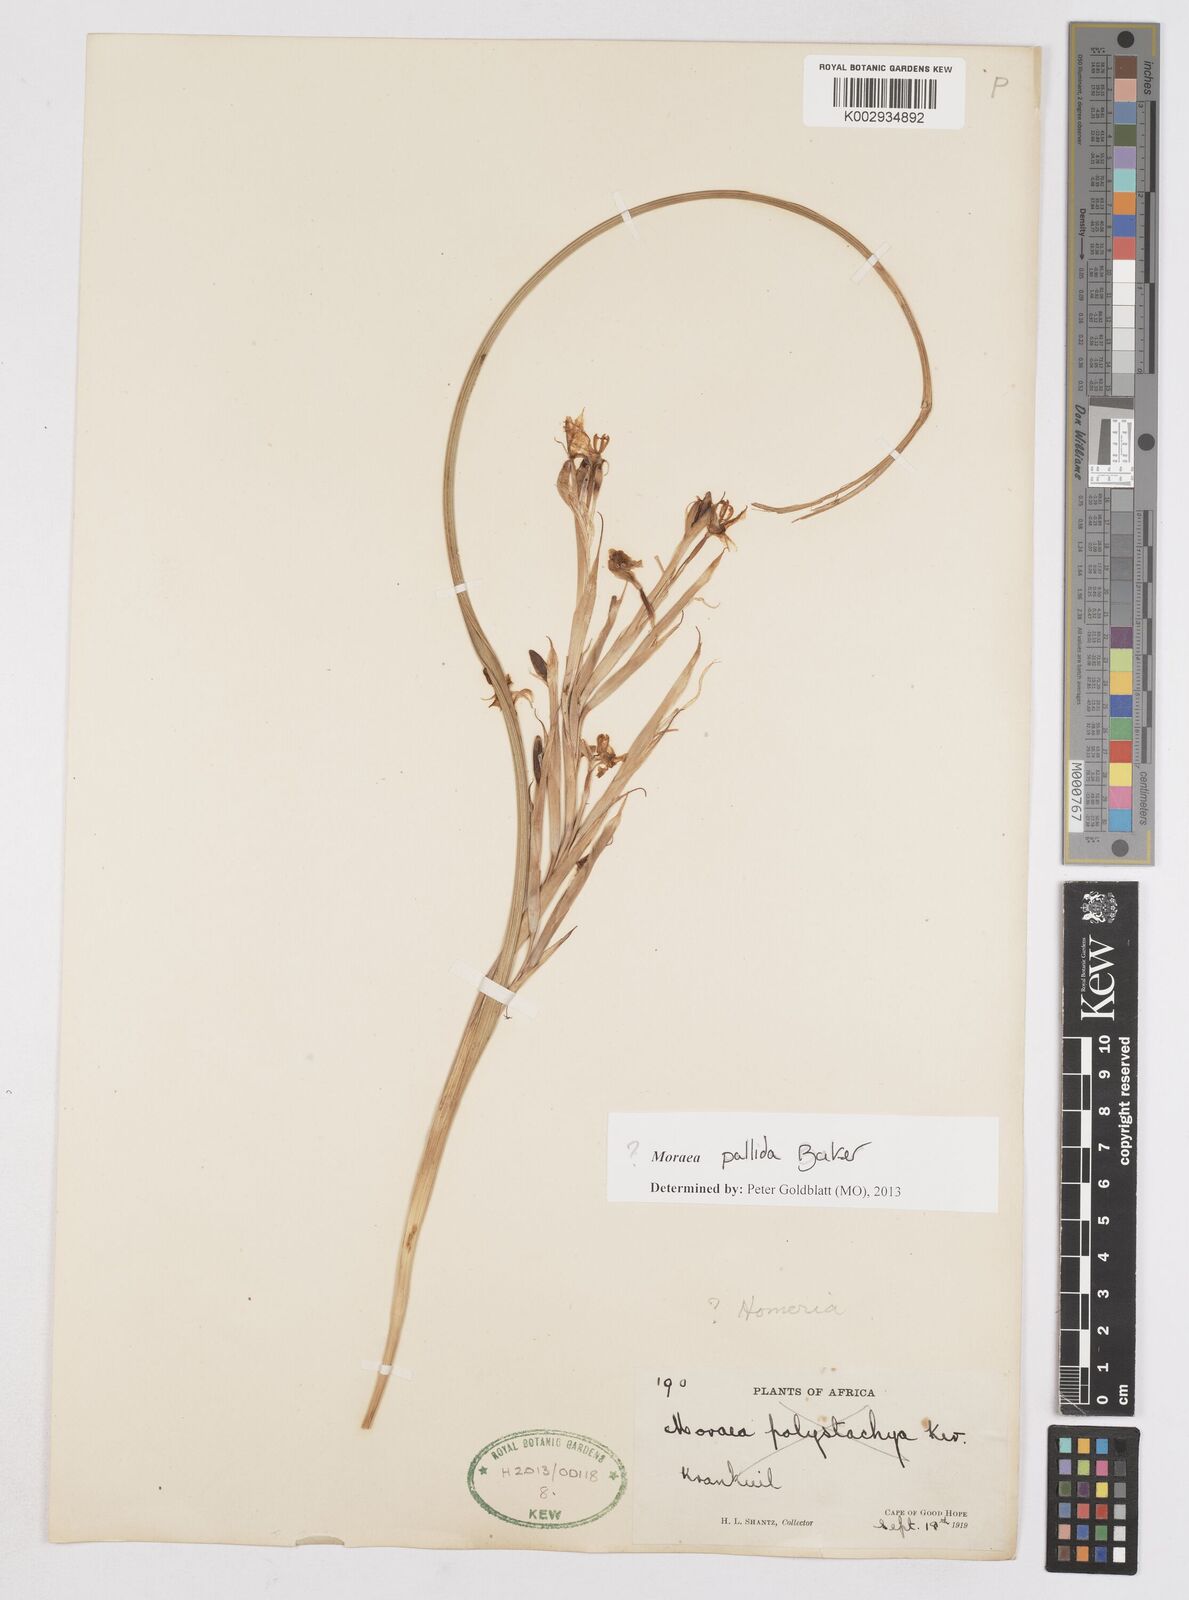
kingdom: Plantae
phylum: Tracheophyta
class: Liliopsida
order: Asparagales
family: Iridaceae
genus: Moraea
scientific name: Moraea pallida
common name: Yellow tulp
